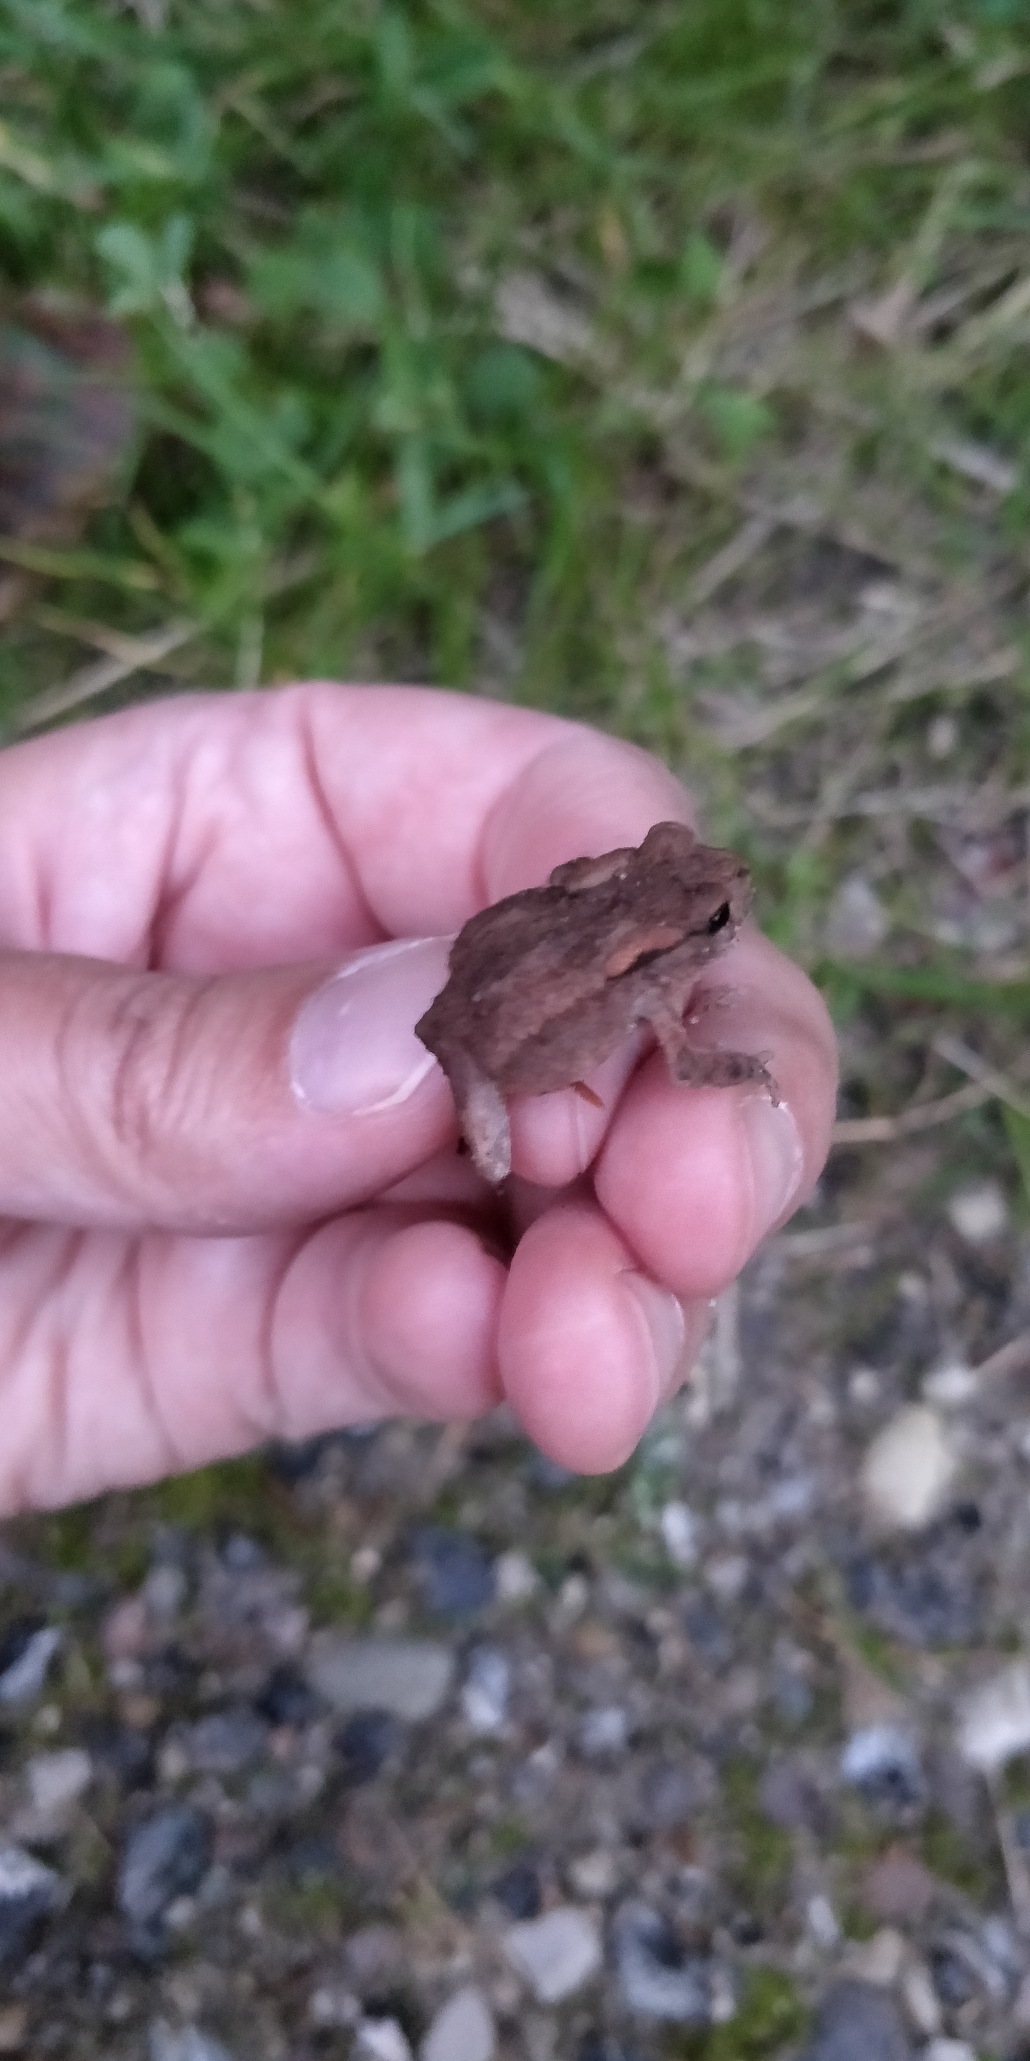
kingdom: Animalia
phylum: Chordata
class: Amphibia
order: Anura
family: Bufonidae
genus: Bufo
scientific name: Bufo bufo
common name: Skrubtudse
